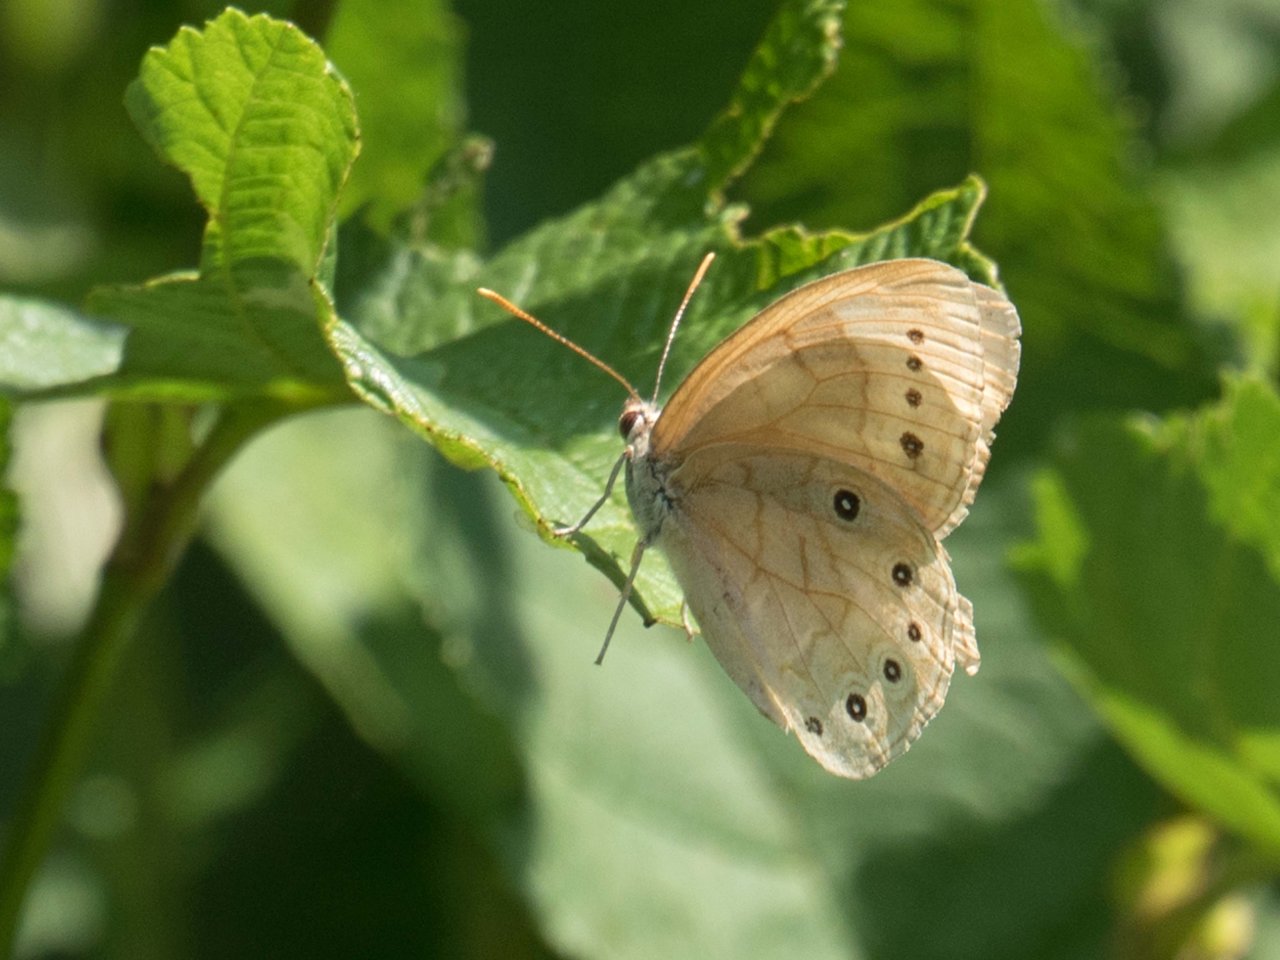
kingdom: Animalia
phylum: Arthropoda
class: Insecta
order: Lepidoptera
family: Nymphalidae
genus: Lethe
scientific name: Lethe eurydice
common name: Eyed Brown
